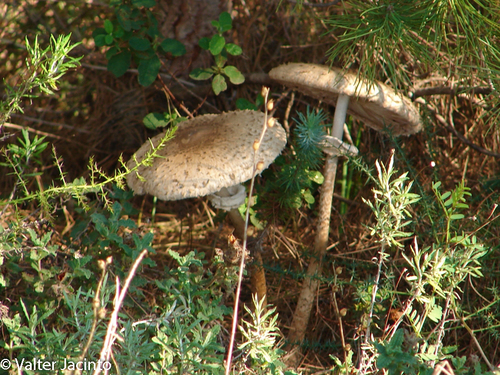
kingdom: Fungi
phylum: Basidiomycota
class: Agaricomycetes
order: Agaricales
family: Agaricaceae
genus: Macrolepiota
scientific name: Macrolepiota procera
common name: Parasol
